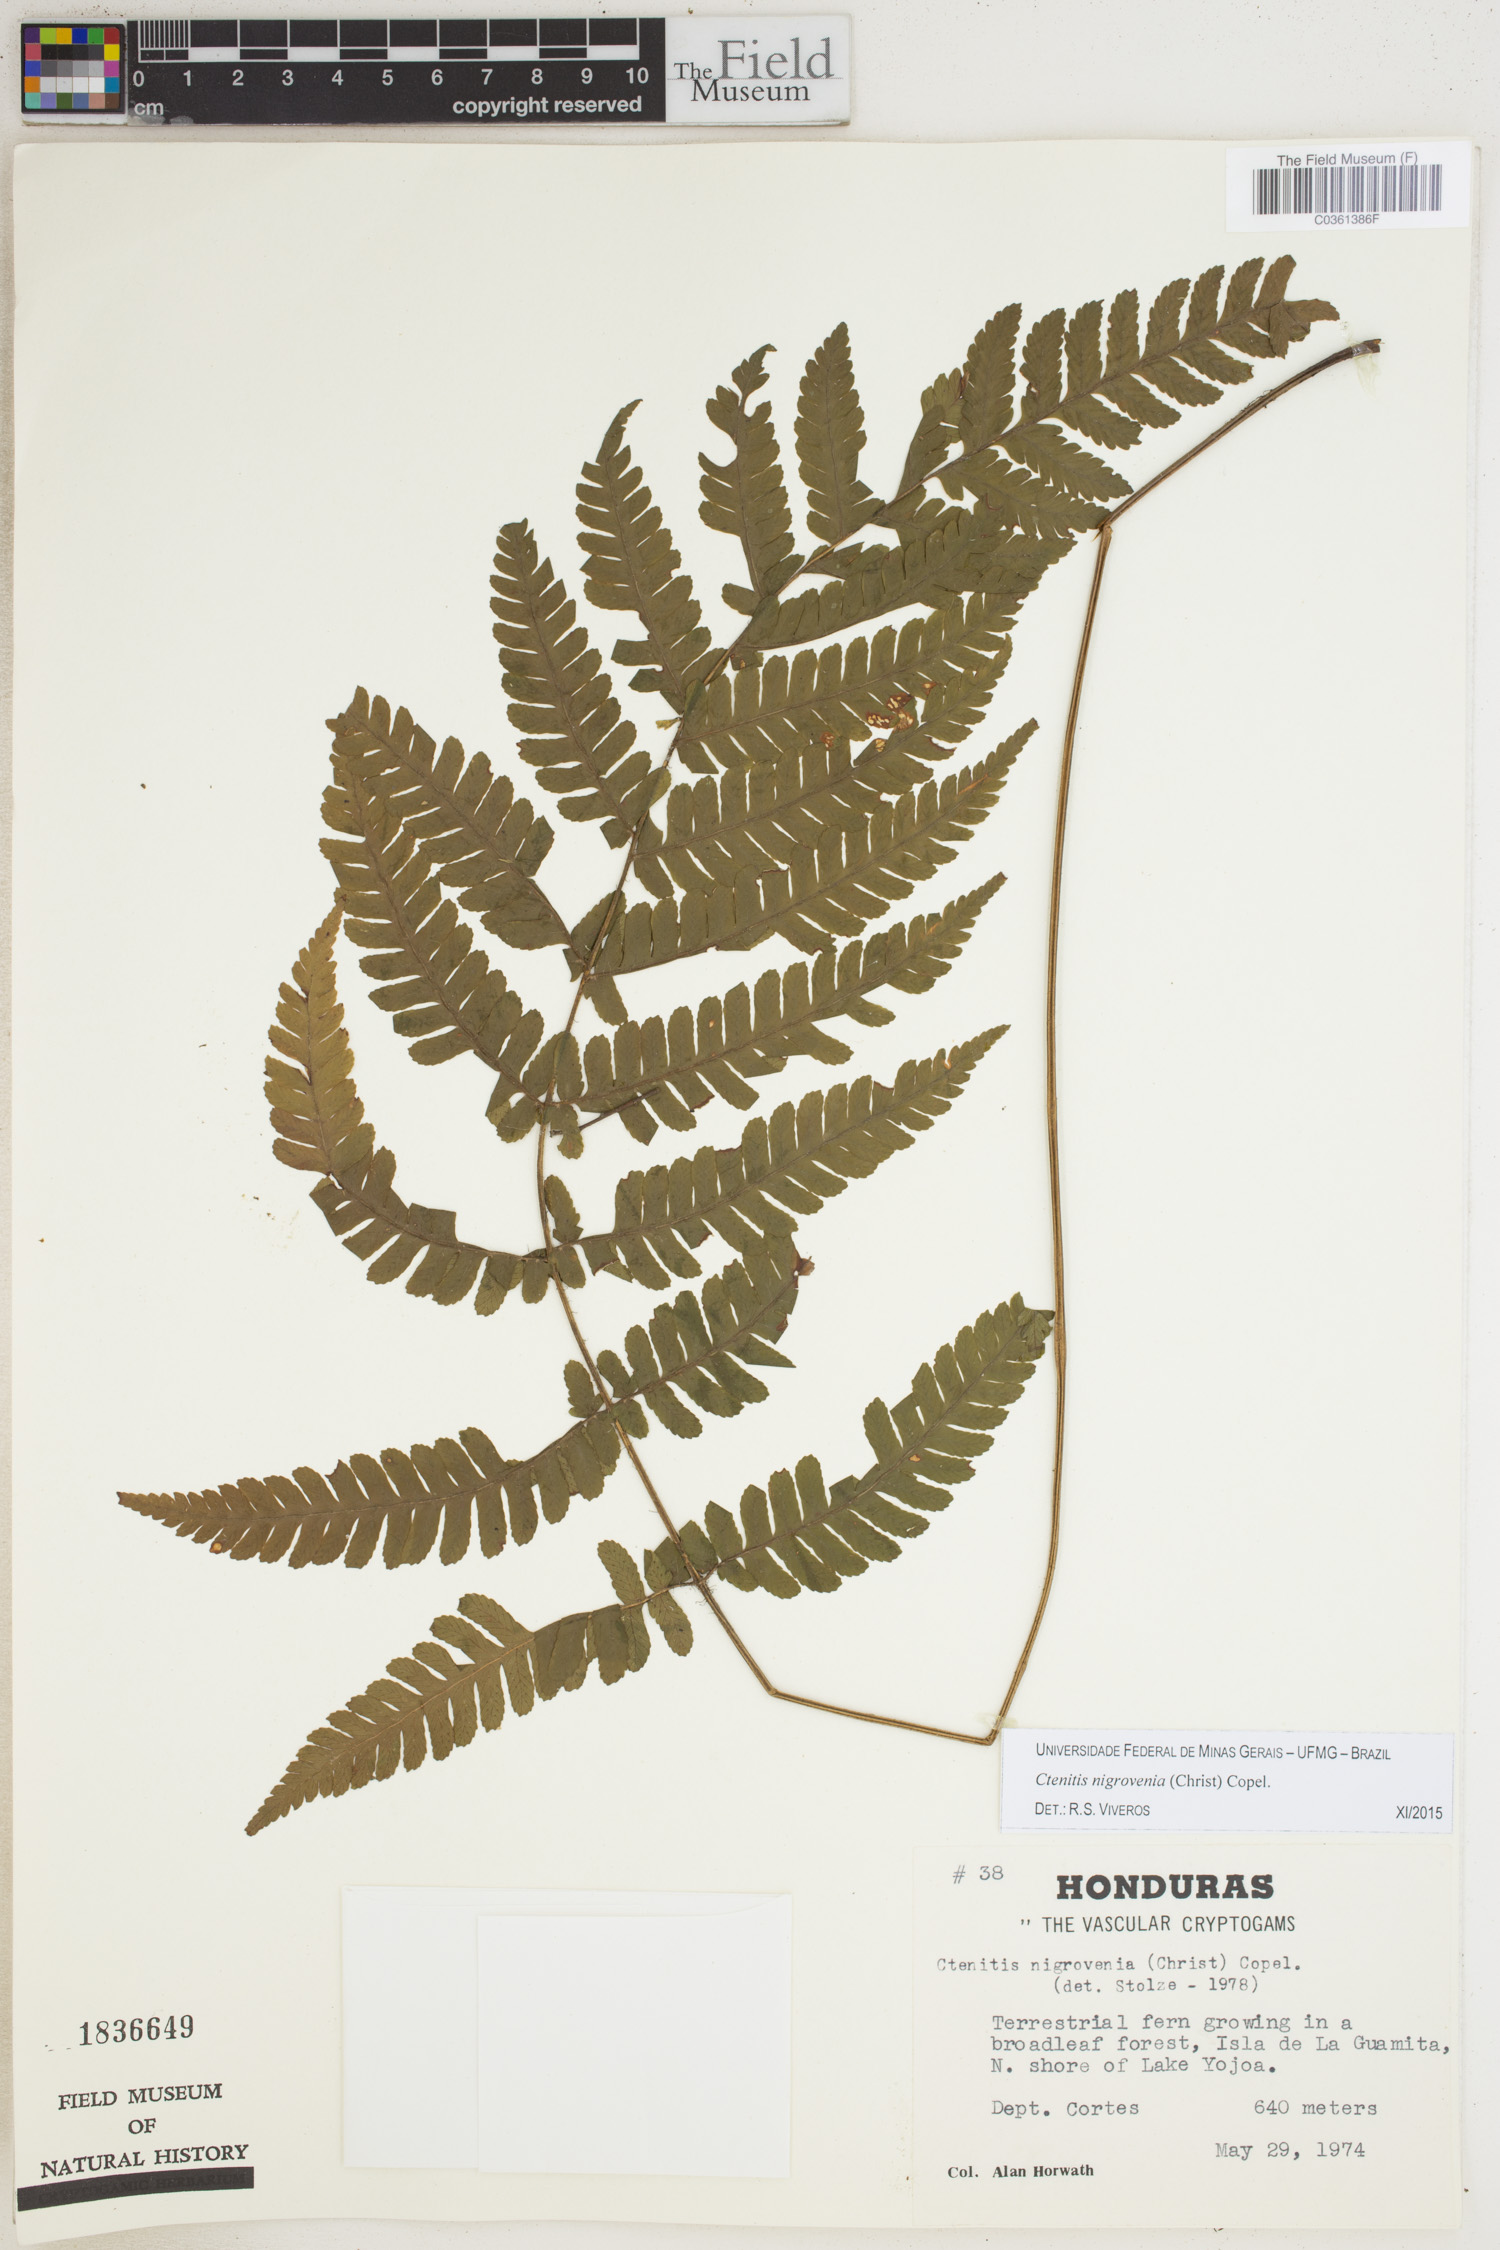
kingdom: Plantae
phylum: Tracheophyta
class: Polypodiopsida
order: Polypodiales
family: Dryopteridaceae
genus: Ctenitis
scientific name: Ctenitis nigrovenia
